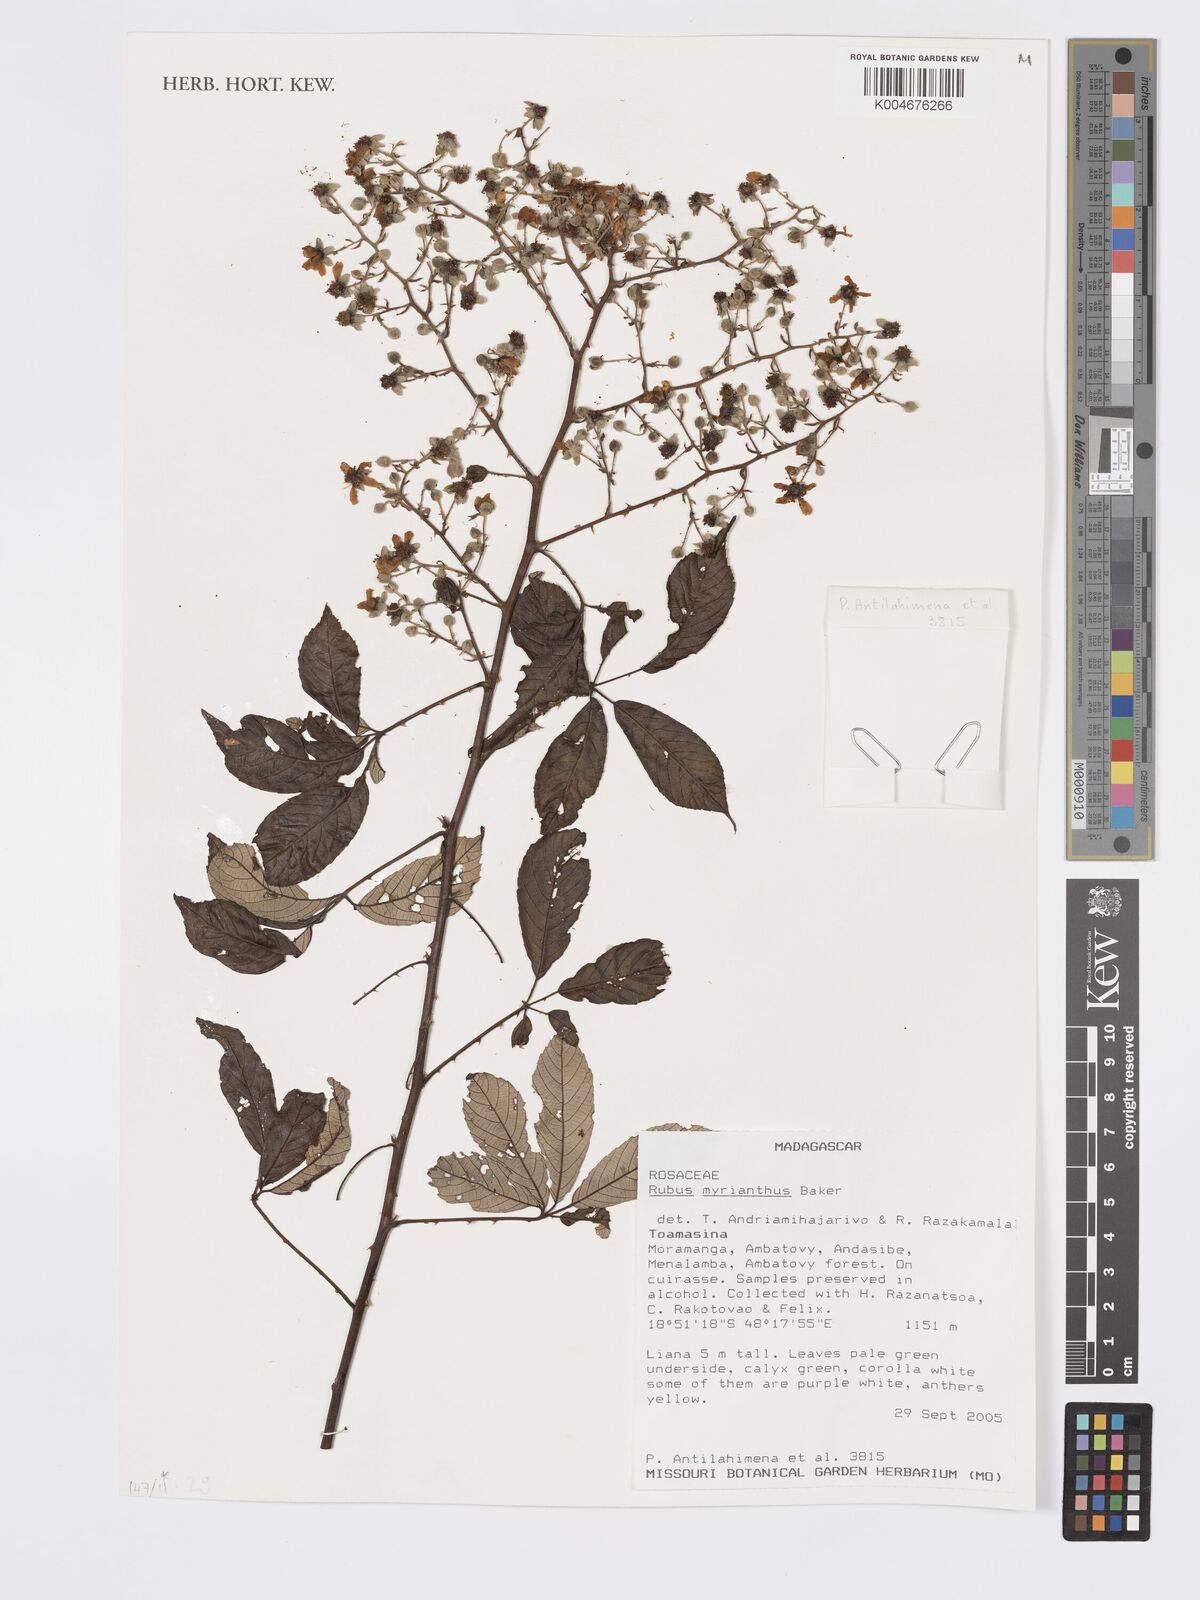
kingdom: Plantae
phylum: Tracheophyta
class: Magnoliopsida
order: Rosales
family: Rosaceae
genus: Rubus
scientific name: Rubus
